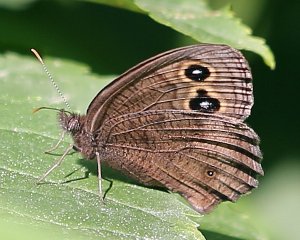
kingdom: Animalia
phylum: Arthropoda
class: Insecta
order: Lepidoptera
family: Nymphalidae
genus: Cercyonis
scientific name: Cercyonis pegala
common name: Common Wood-Nymph
